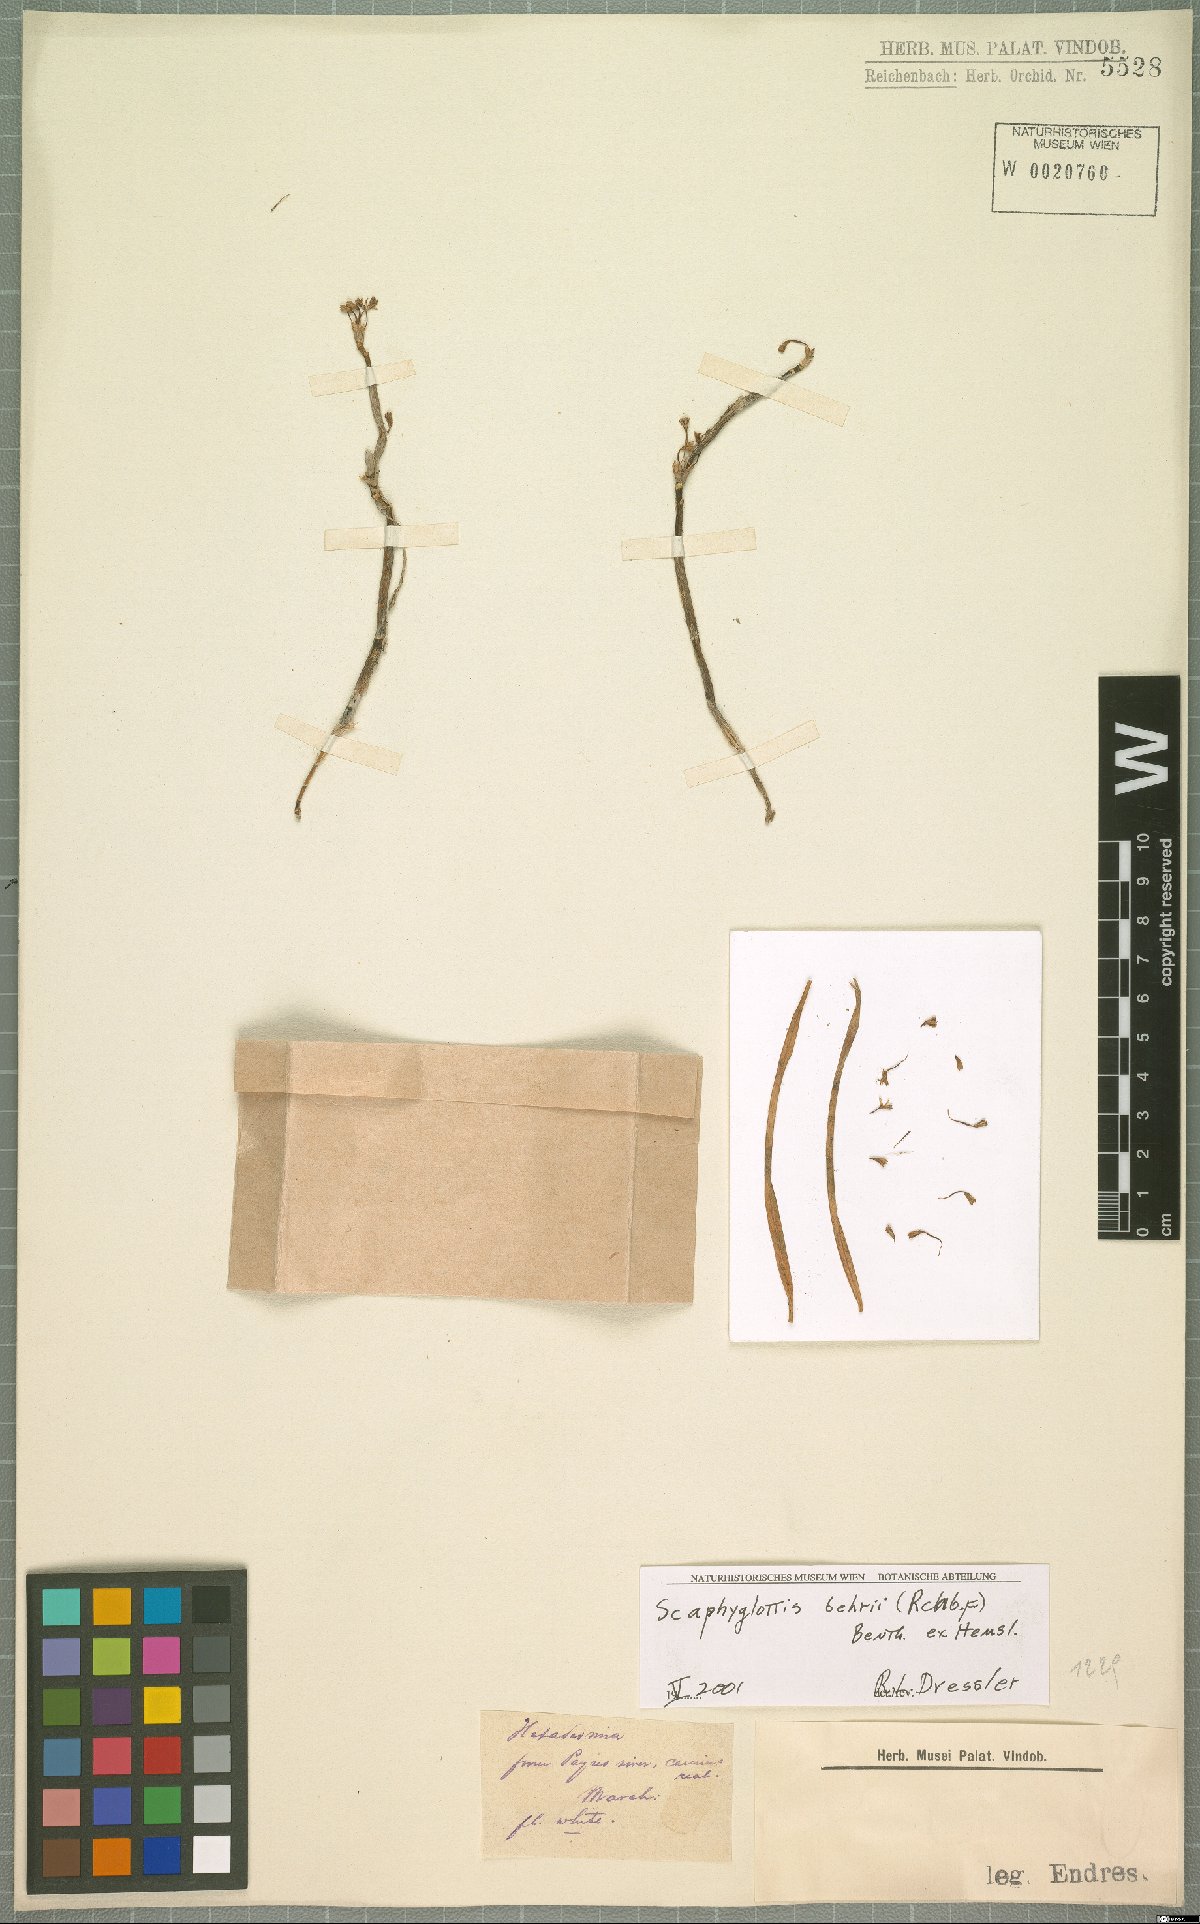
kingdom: Plantae
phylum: Tracheophyta
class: Liliopsida
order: Asparagales
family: Orchidaceae
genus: Scaphyglottis
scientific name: Scaphyglottis behrii
